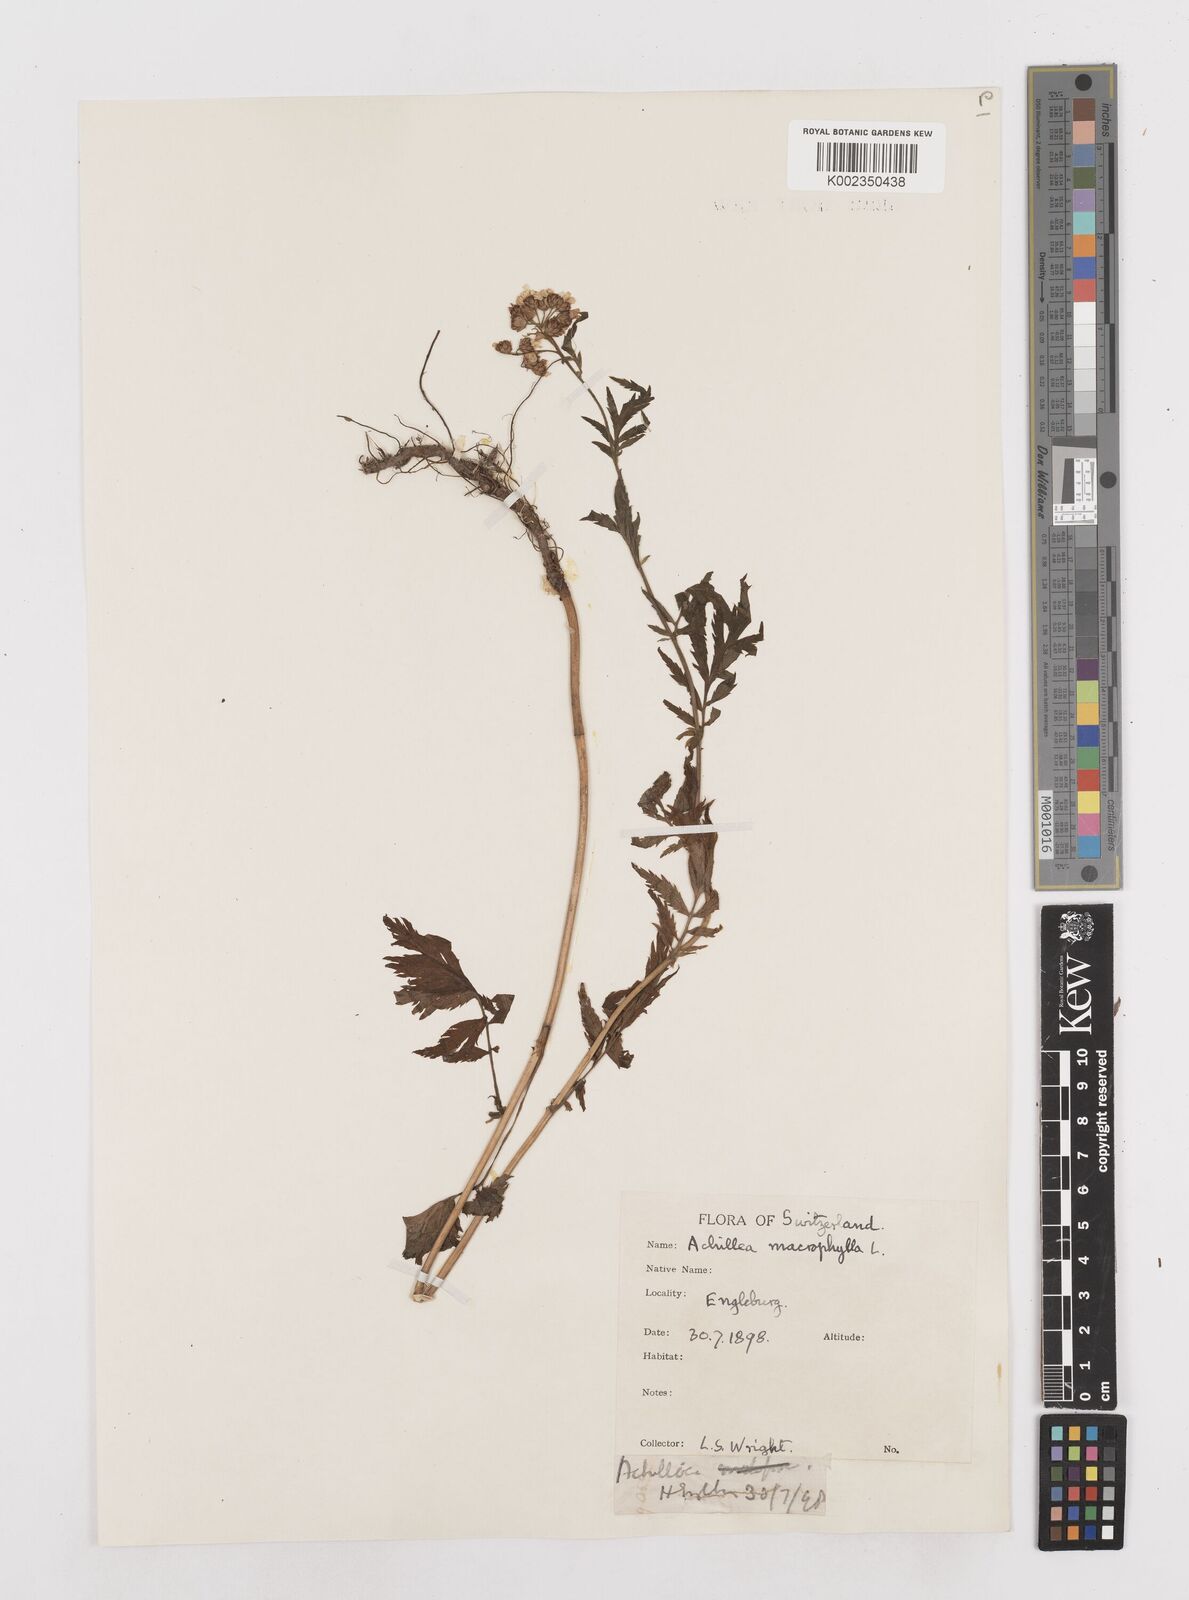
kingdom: Plantae
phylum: Tracheophyta
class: Magnoliopsida
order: Asterales
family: Asteraceae
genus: Achillea
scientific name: Achillea macrophylla
